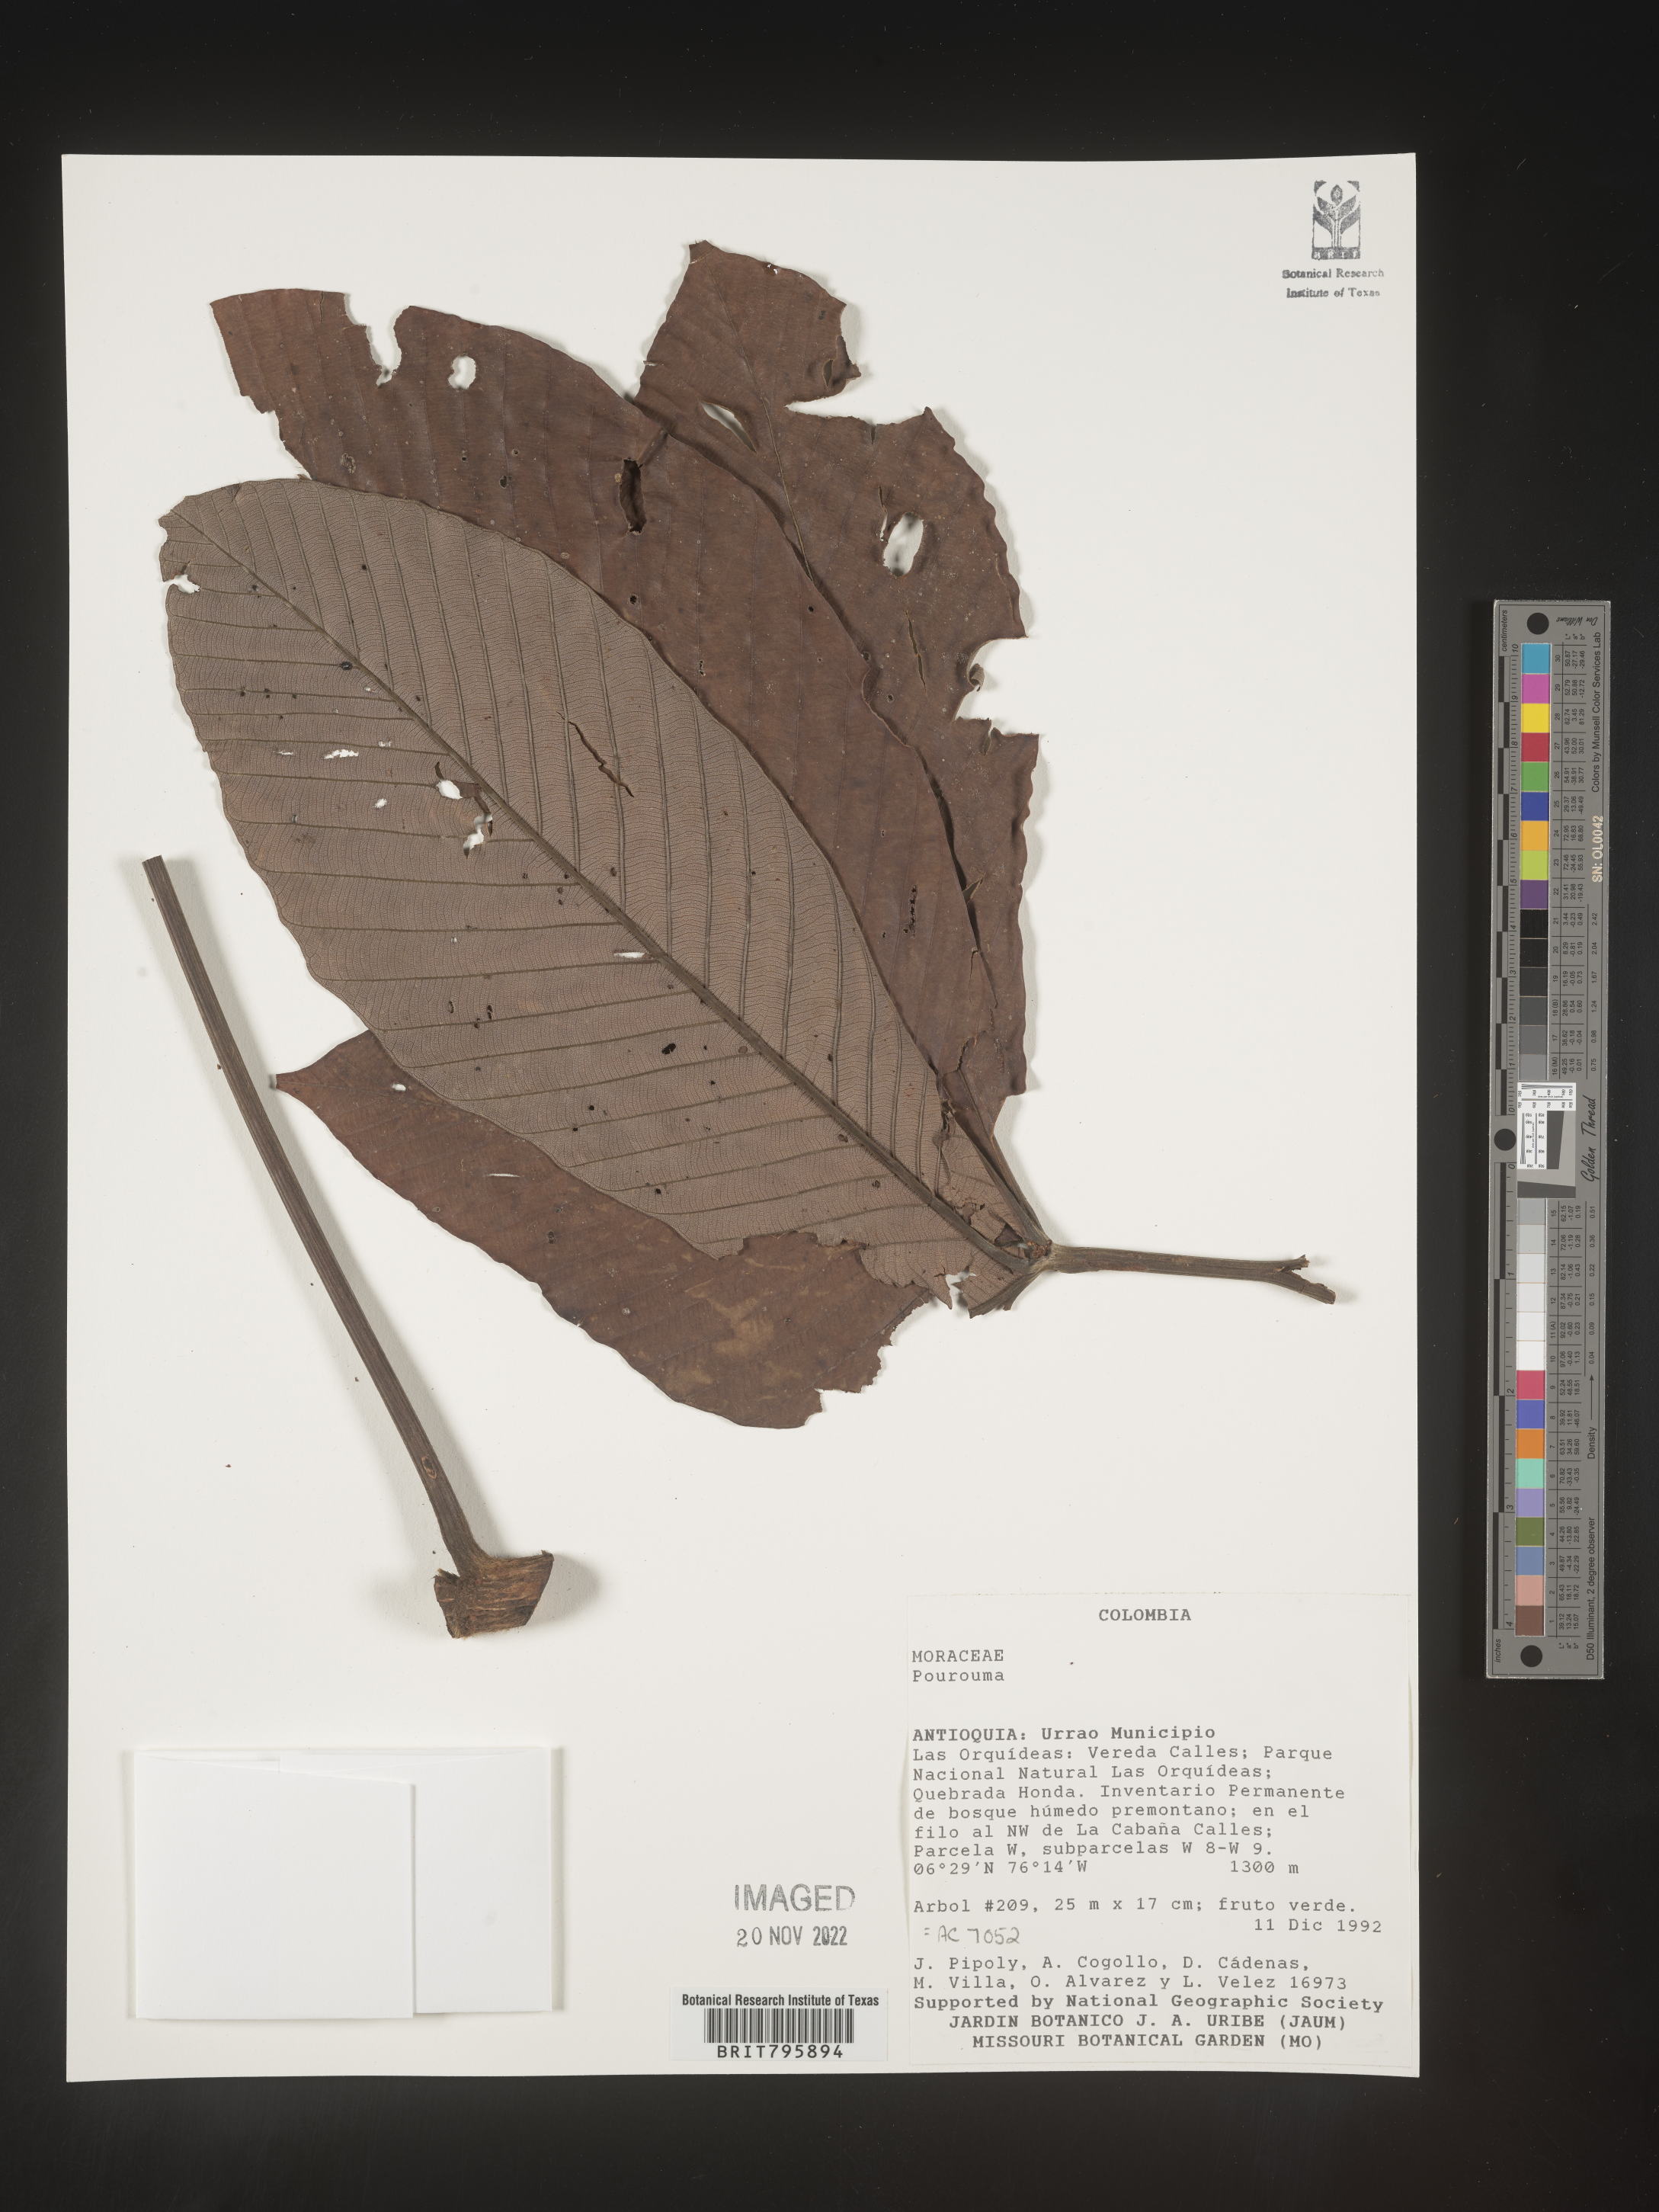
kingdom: Plantae
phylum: Tracheophyta
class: Magnoliopsida
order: Rosales
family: Urticaceae
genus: Pourouma
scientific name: Pourouma
